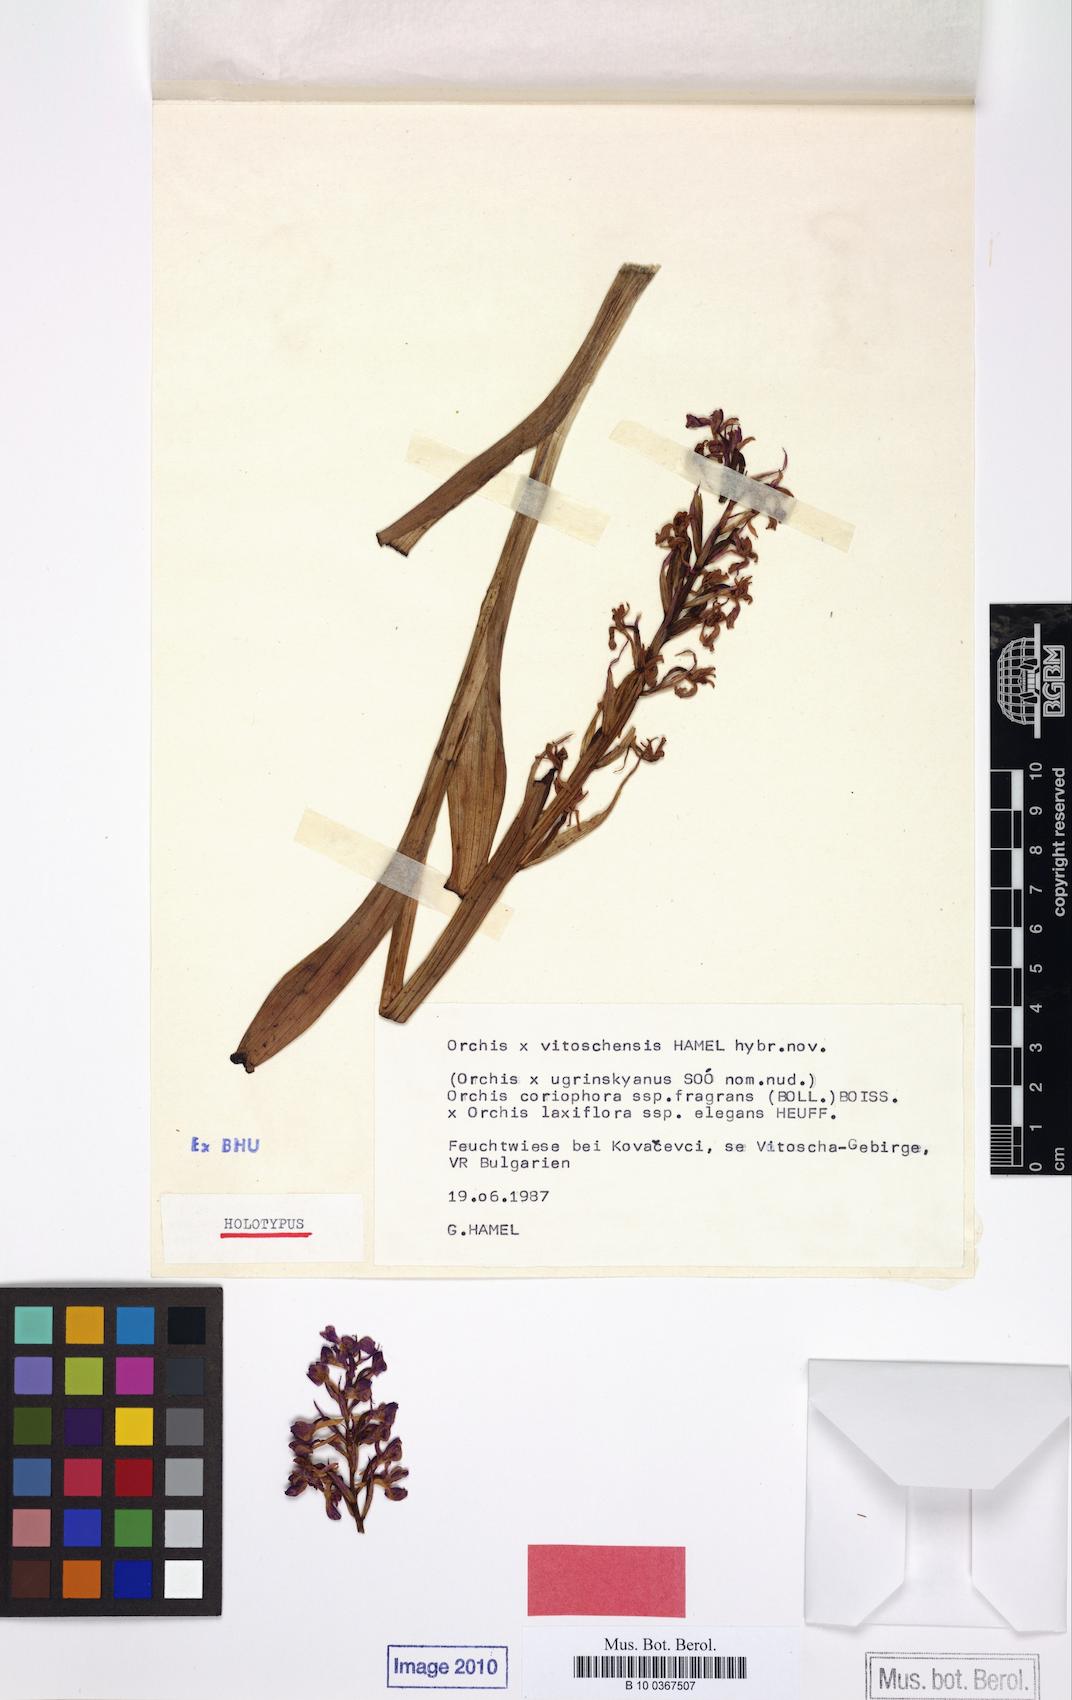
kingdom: Plantae
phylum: Tracheophyta
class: Liliopsida
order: Asparagales
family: Orchidaceae
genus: Orchis
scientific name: Orchis
